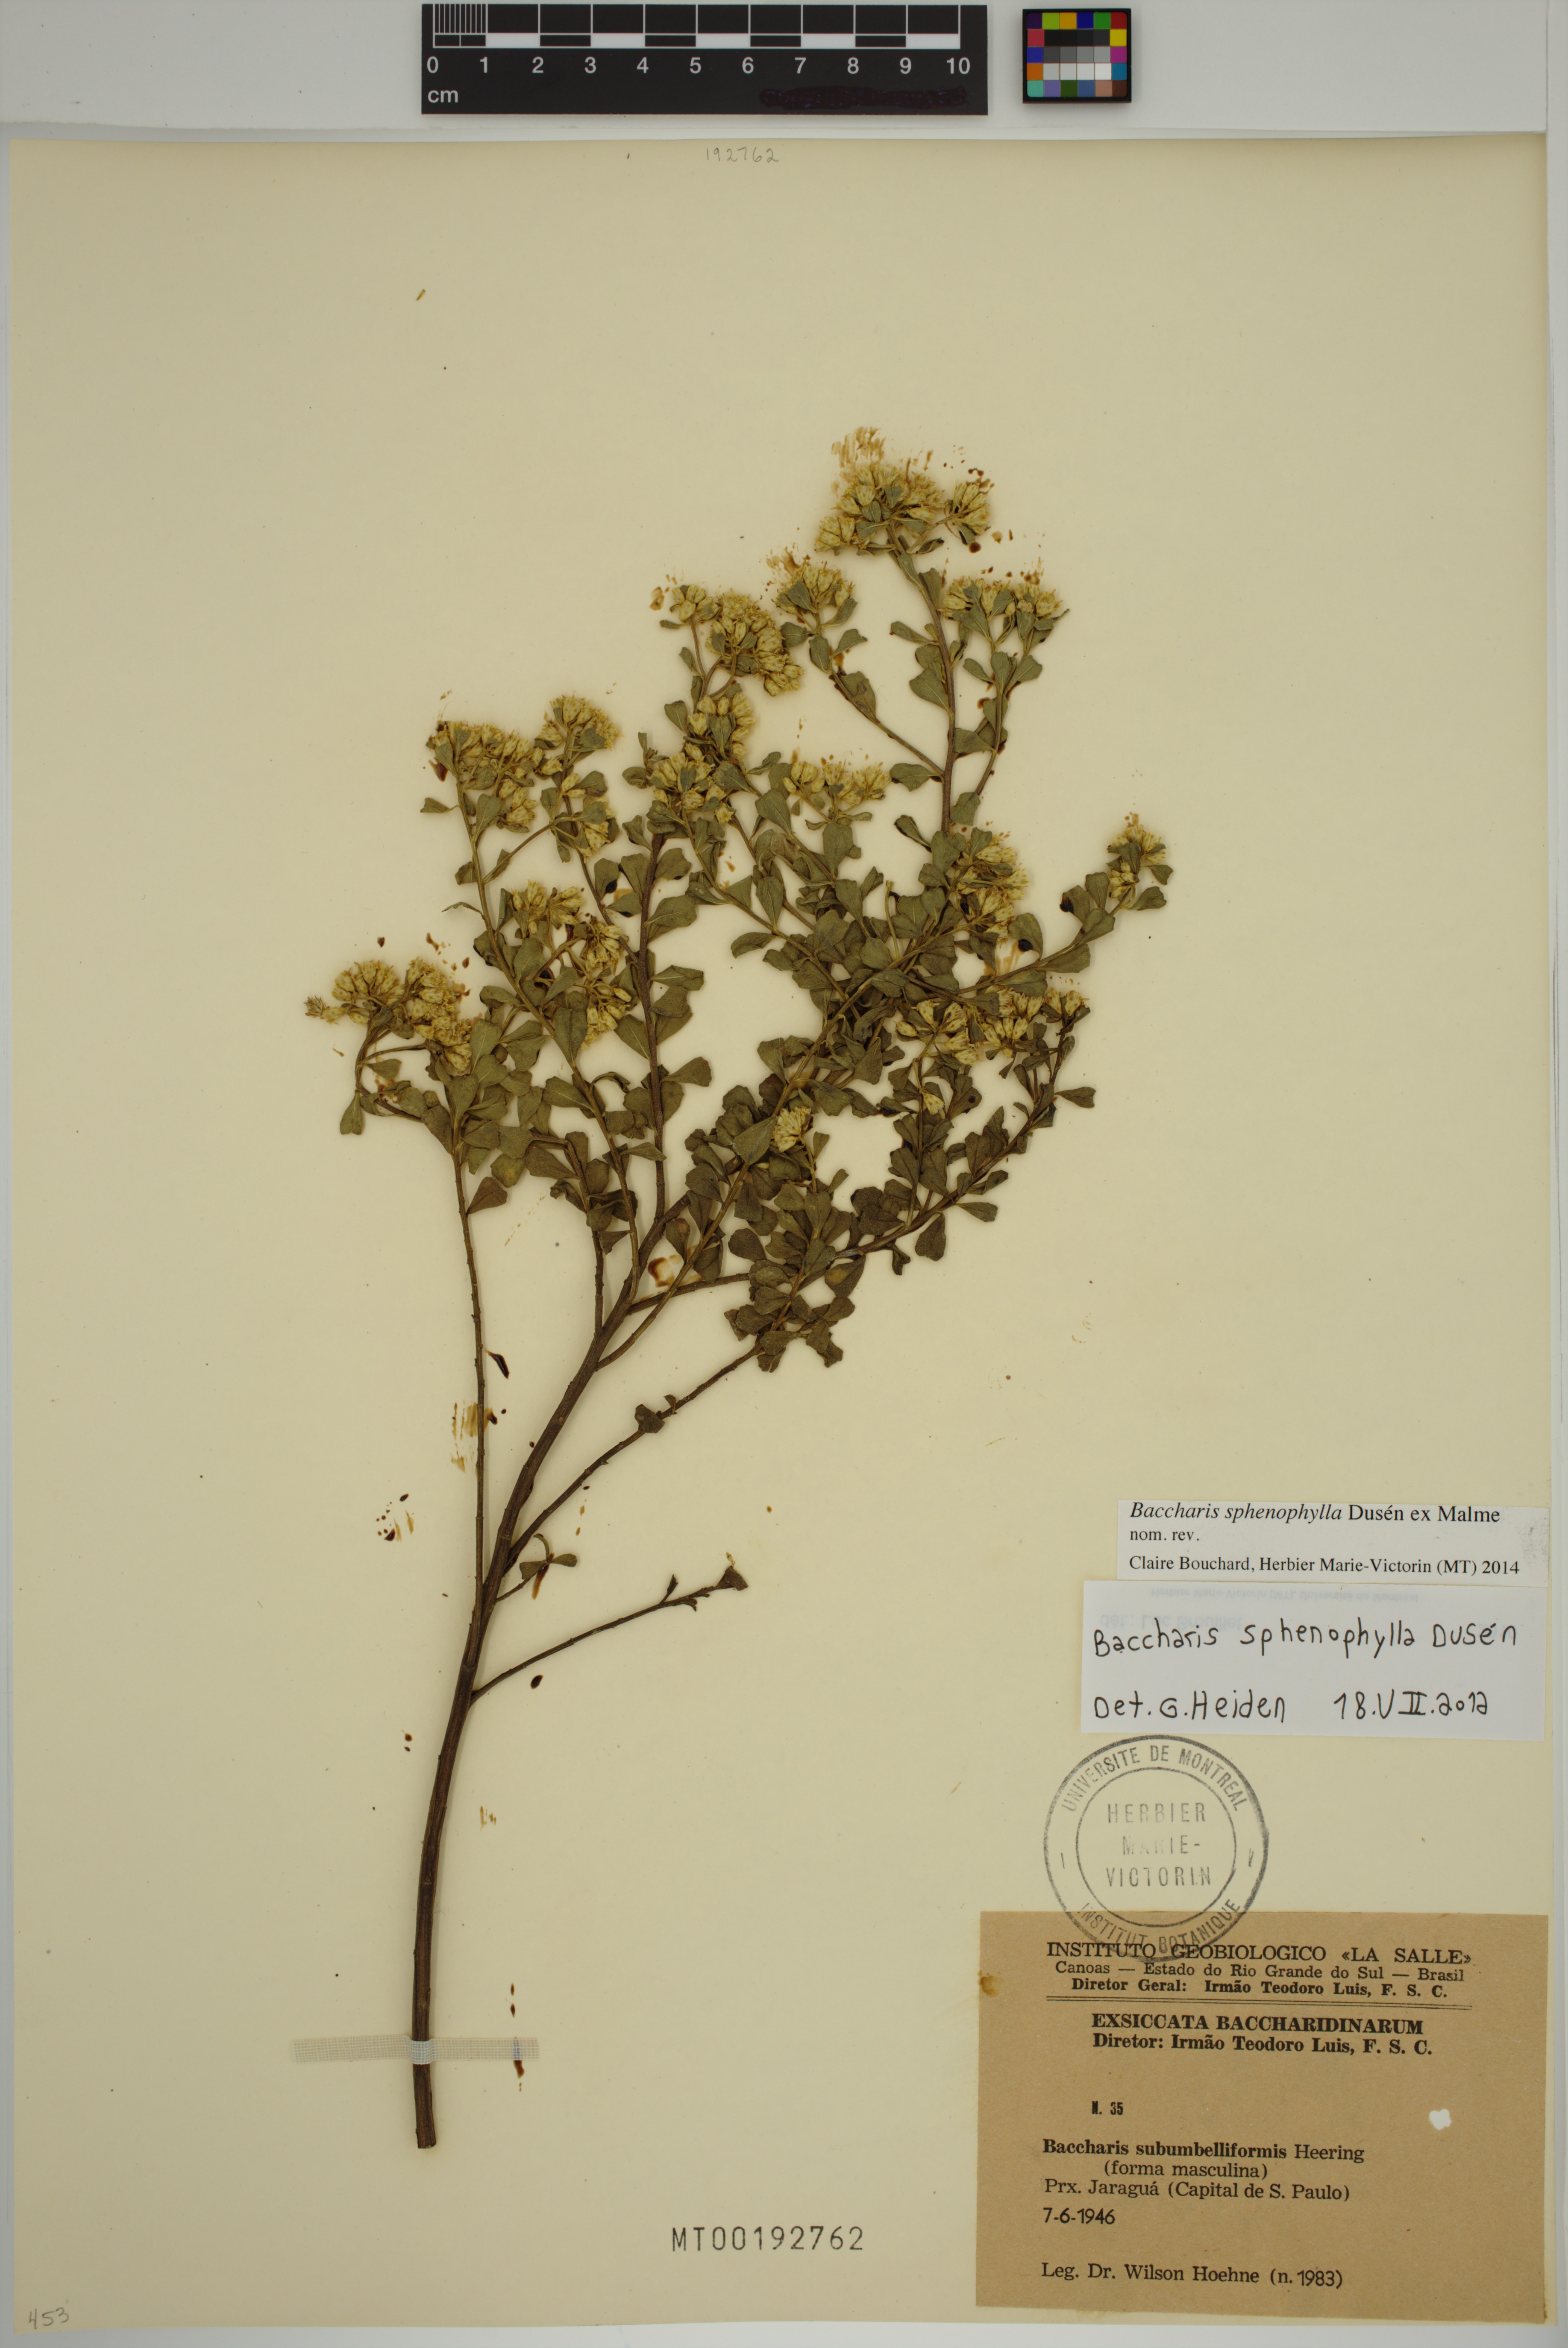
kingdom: Plantae
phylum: Tracheophyta
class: Magnoliopsida
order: Asterales
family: Asteraceae
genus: Baccharis
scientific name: Baccharis pentziifolia
